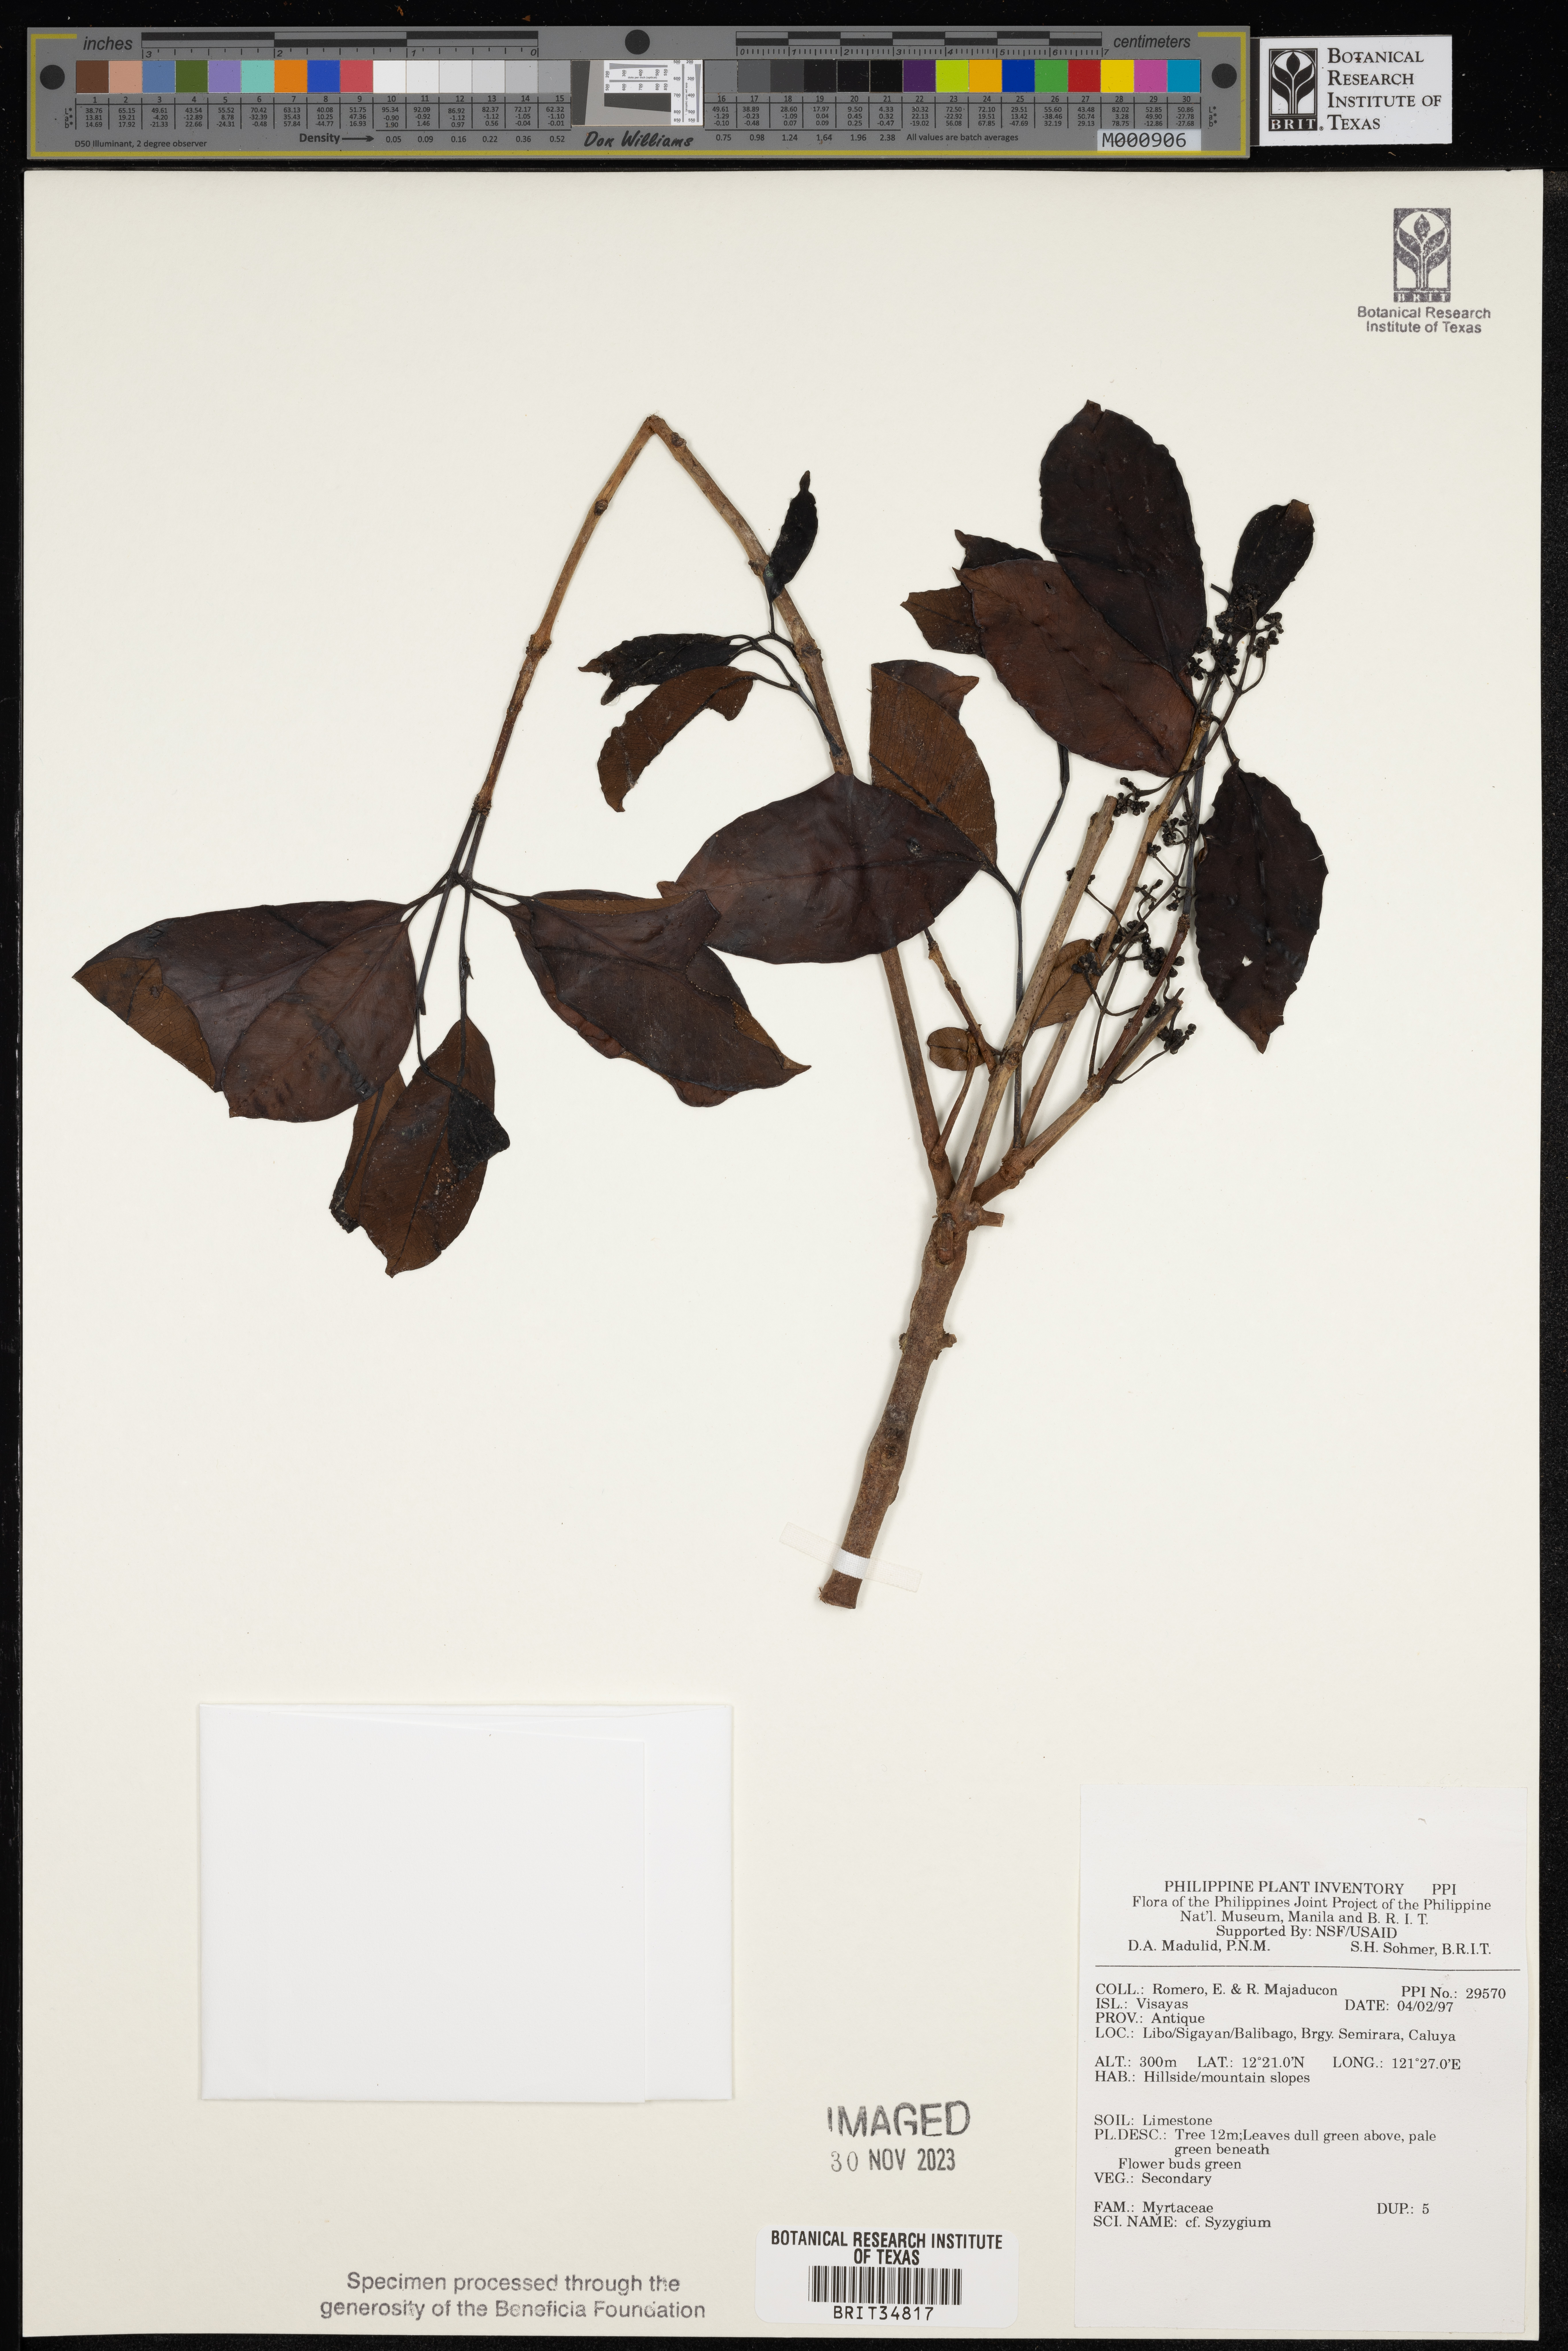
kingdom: Plantae
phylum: Tracheophyta
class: Magnoliopsida
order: Myrtales
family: Myrtaceae
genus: Syzygium
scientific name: Syzygium
